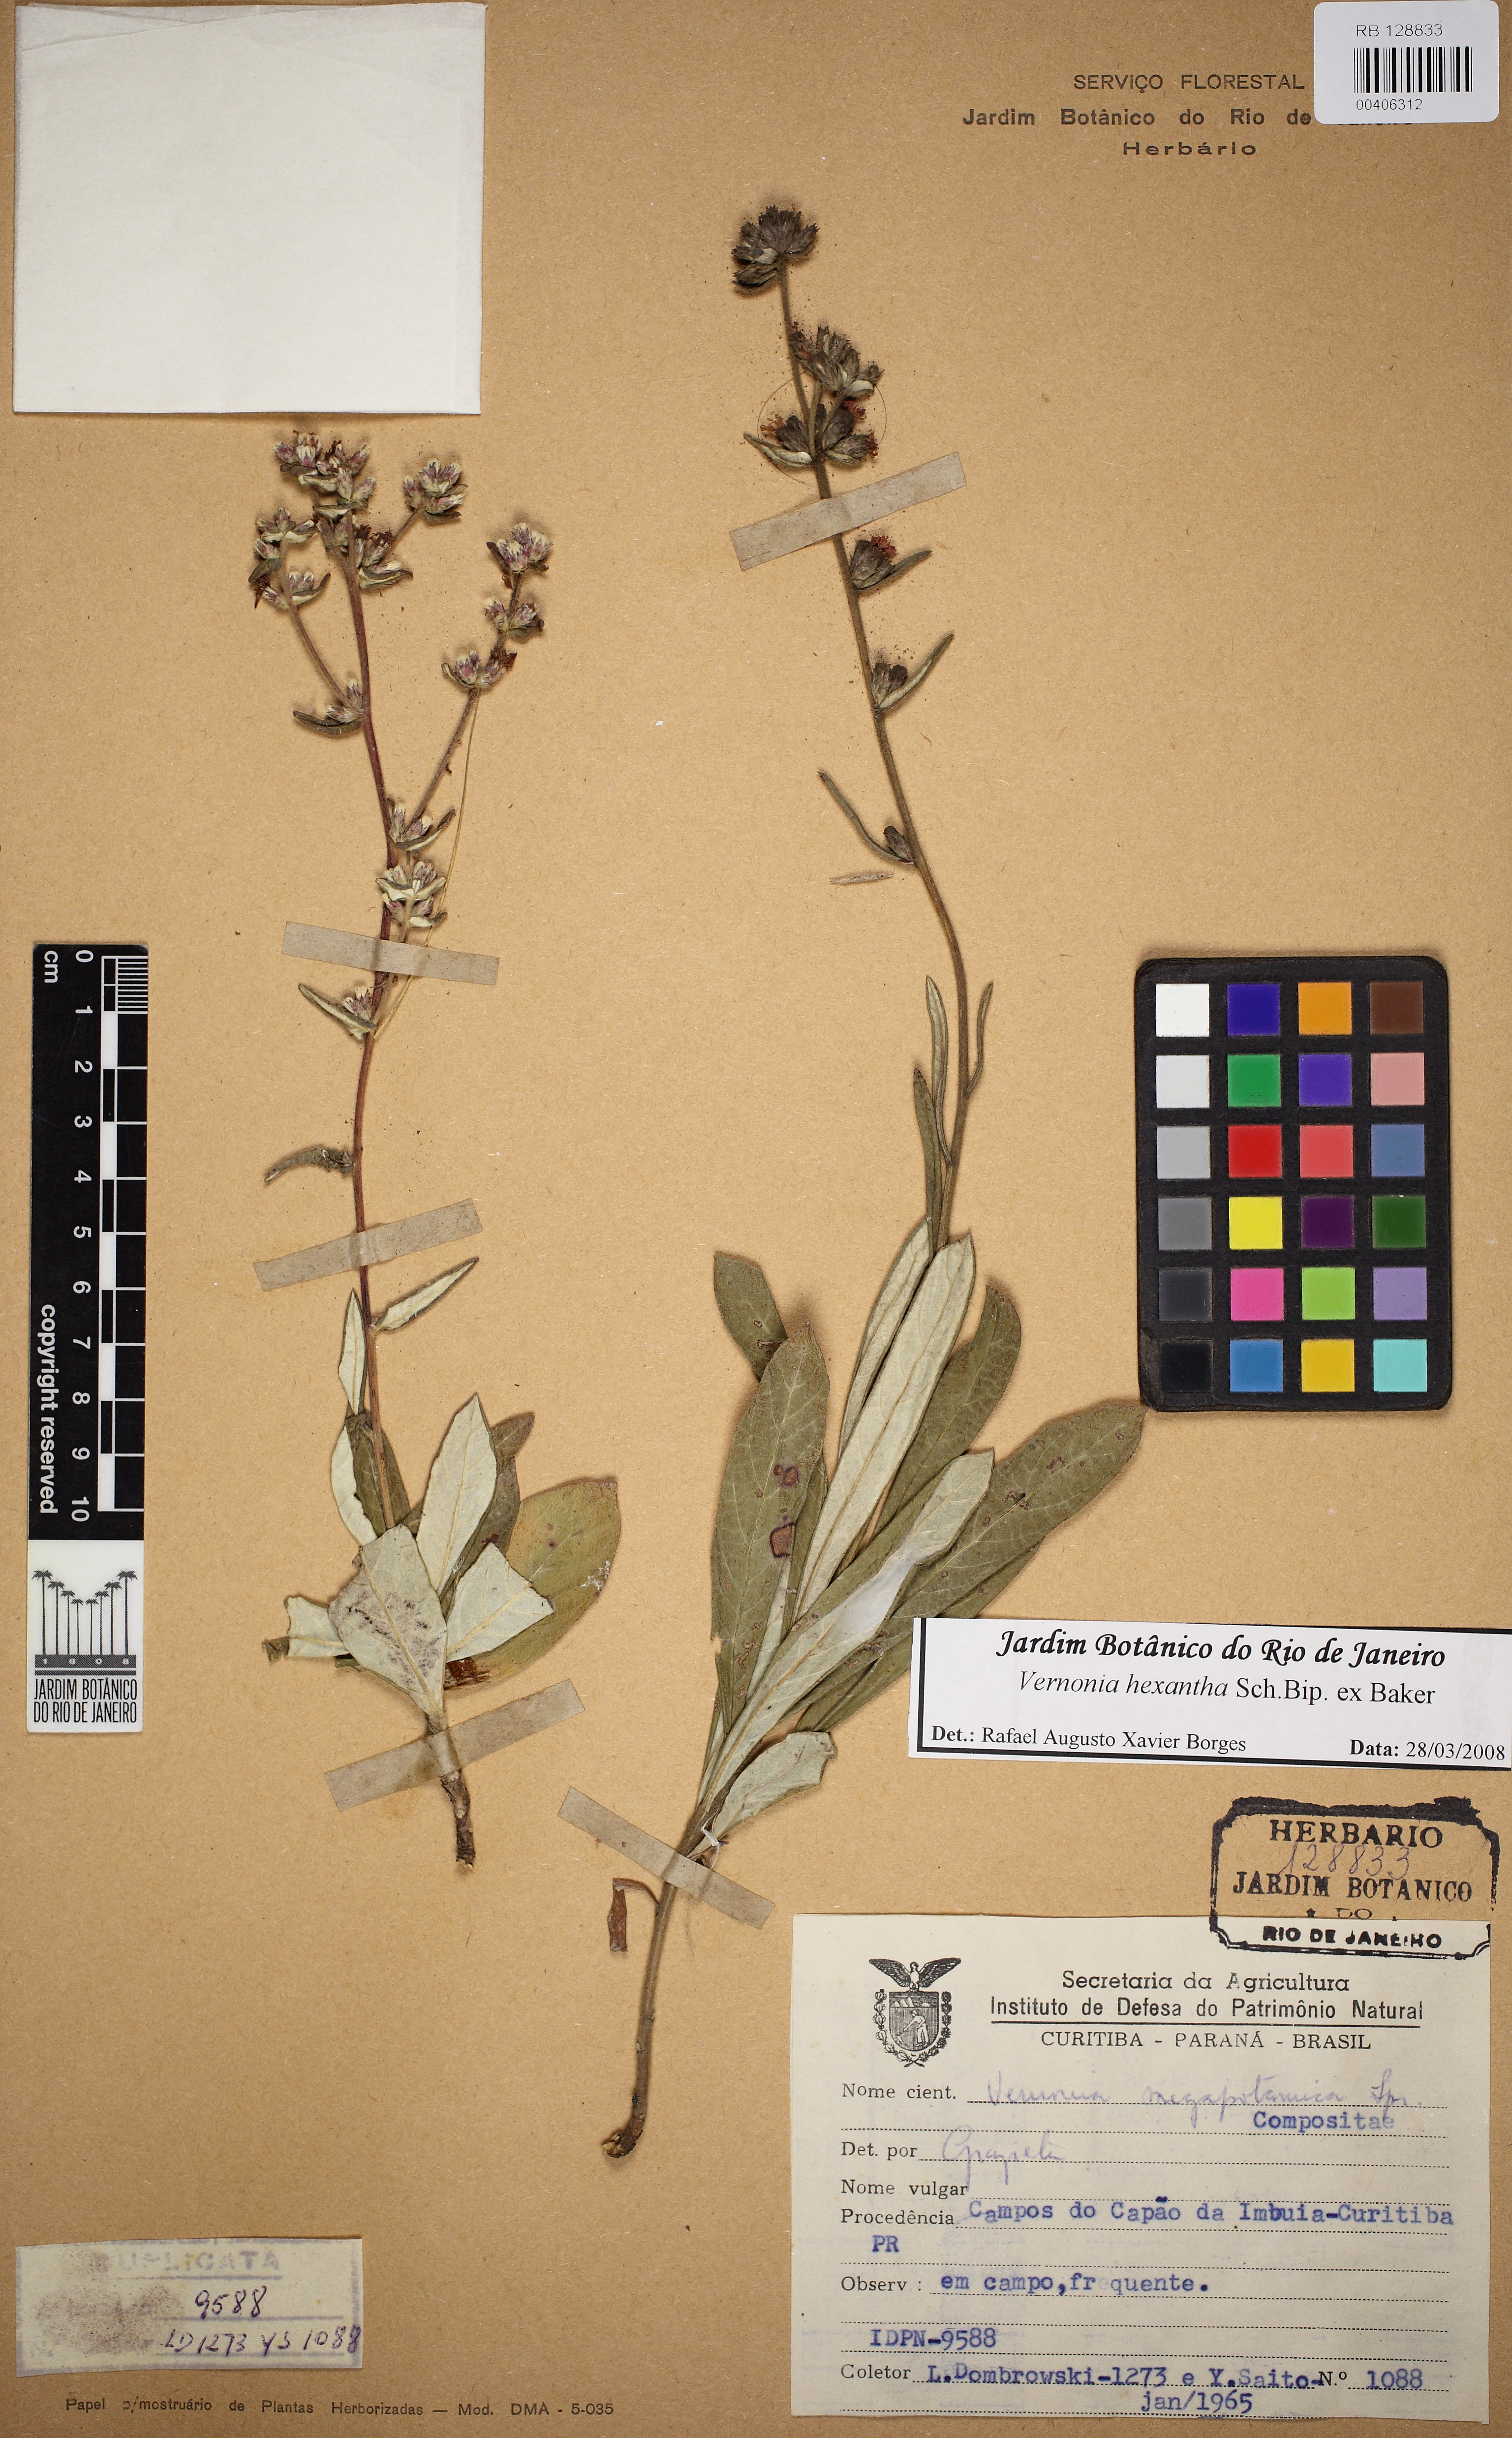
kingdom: Plantae
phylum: Tracheophyta
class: Magnoliopsida
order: Asterales
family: Asteraceae
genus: Stenocephalum
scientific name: Stenocephalum hexanthum
